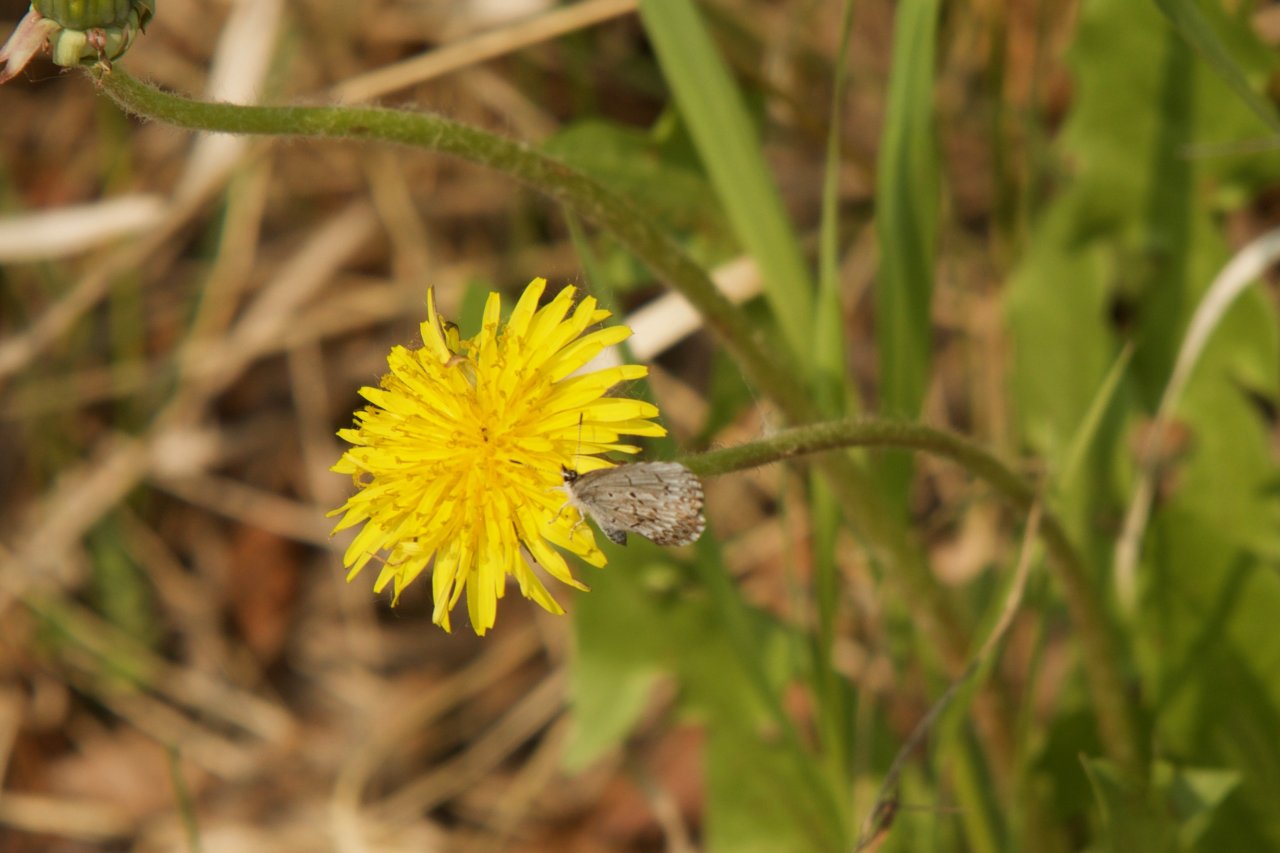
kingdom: Animalia
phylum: Arthropoda
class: Insecta
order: Lepidoptera
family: Lycaenidae
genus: Celastrina
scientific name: Celastrina lucia
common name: Northern Spring Azure
